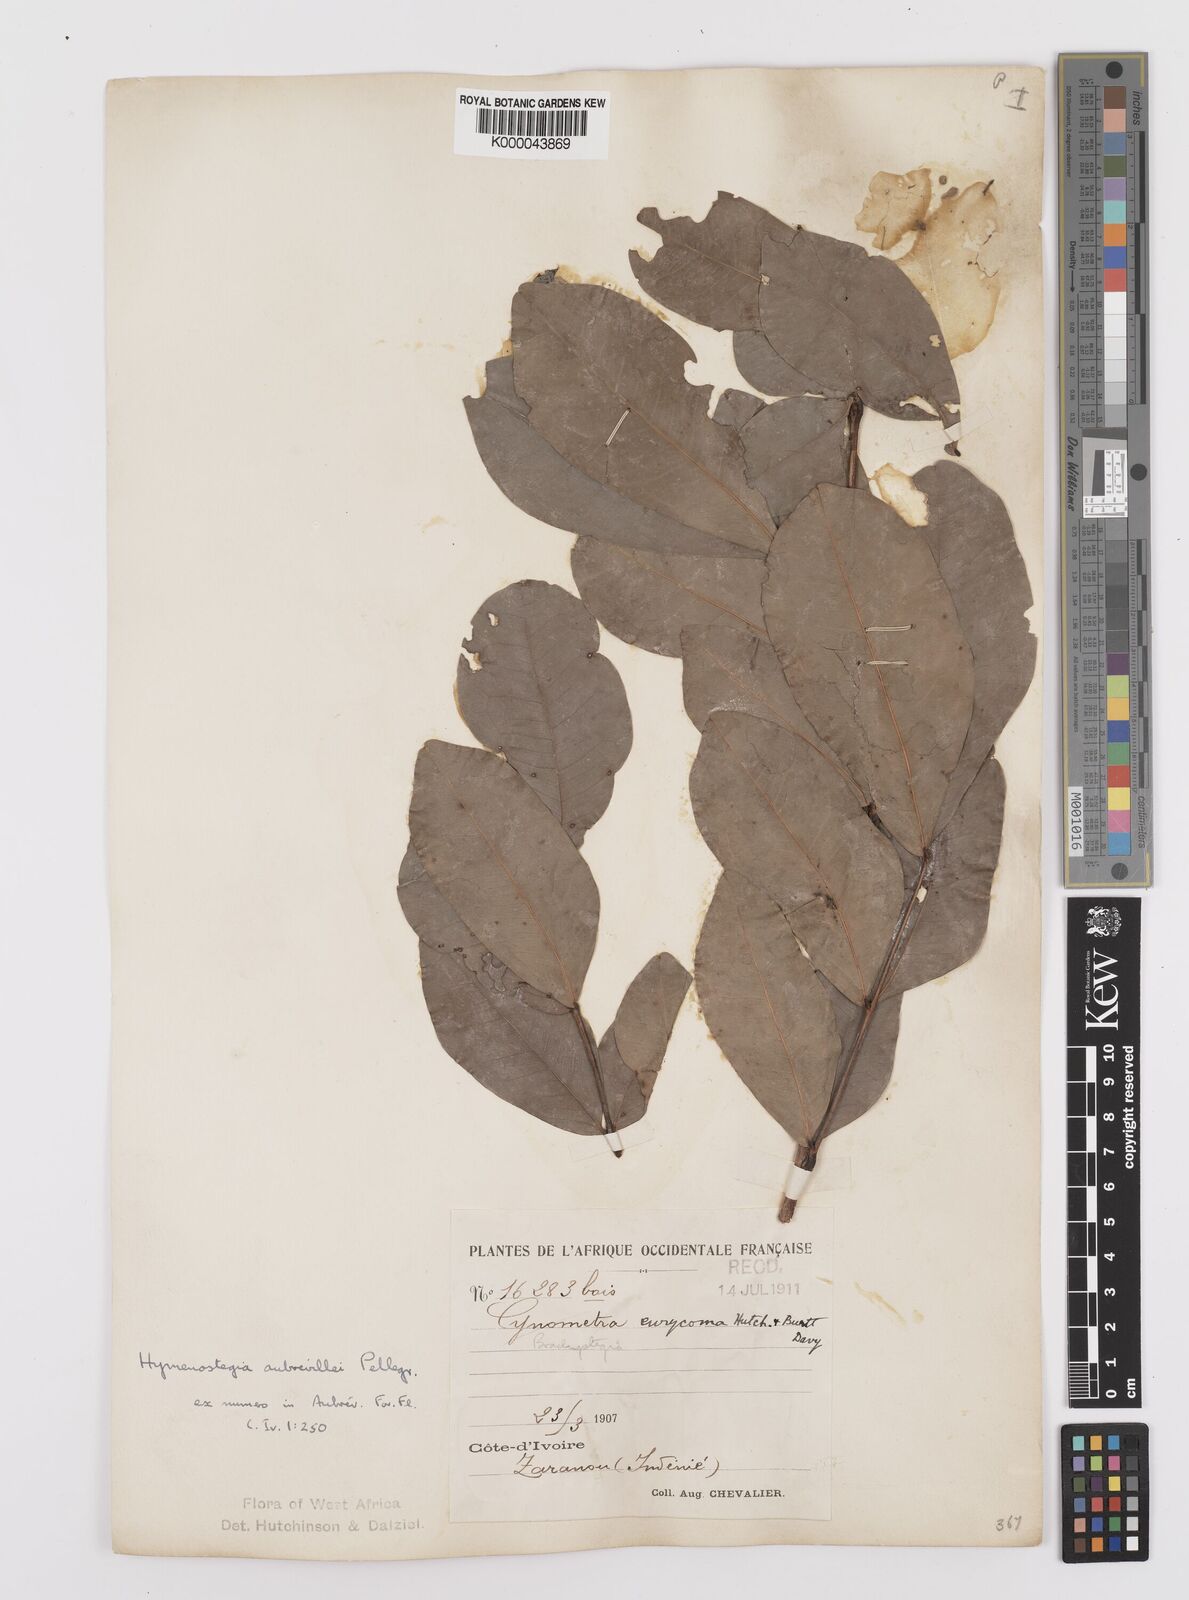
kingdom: Plantae
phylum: Tracheophyta
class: Magnoliopsida
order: Fabales
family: Fabaceae
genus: Hymenostegia
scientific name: Hymenostegia aubrevillei
